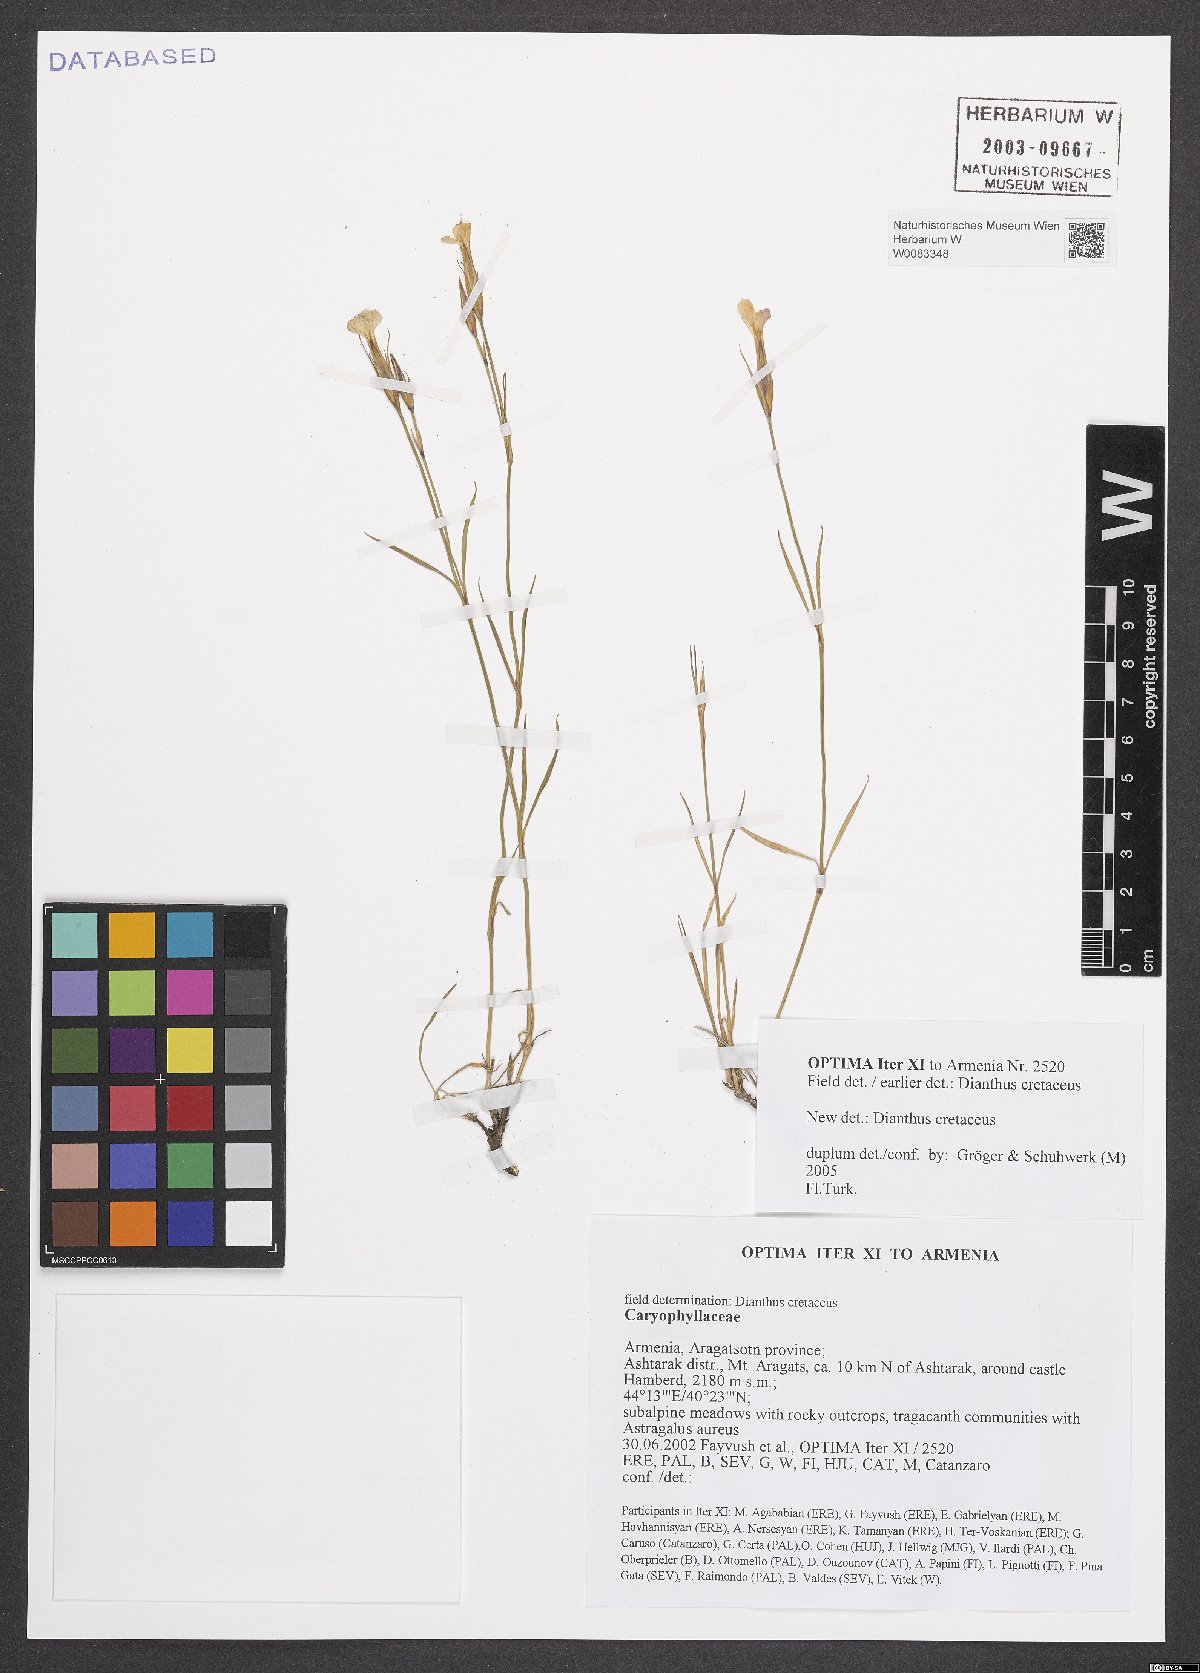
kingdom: Plantae
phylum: Tracheophyta
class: Magnoliopsida
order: Caryophyllales
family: Caryophyllaceae
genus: Dianthus
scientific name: Dianthus cretaceus
